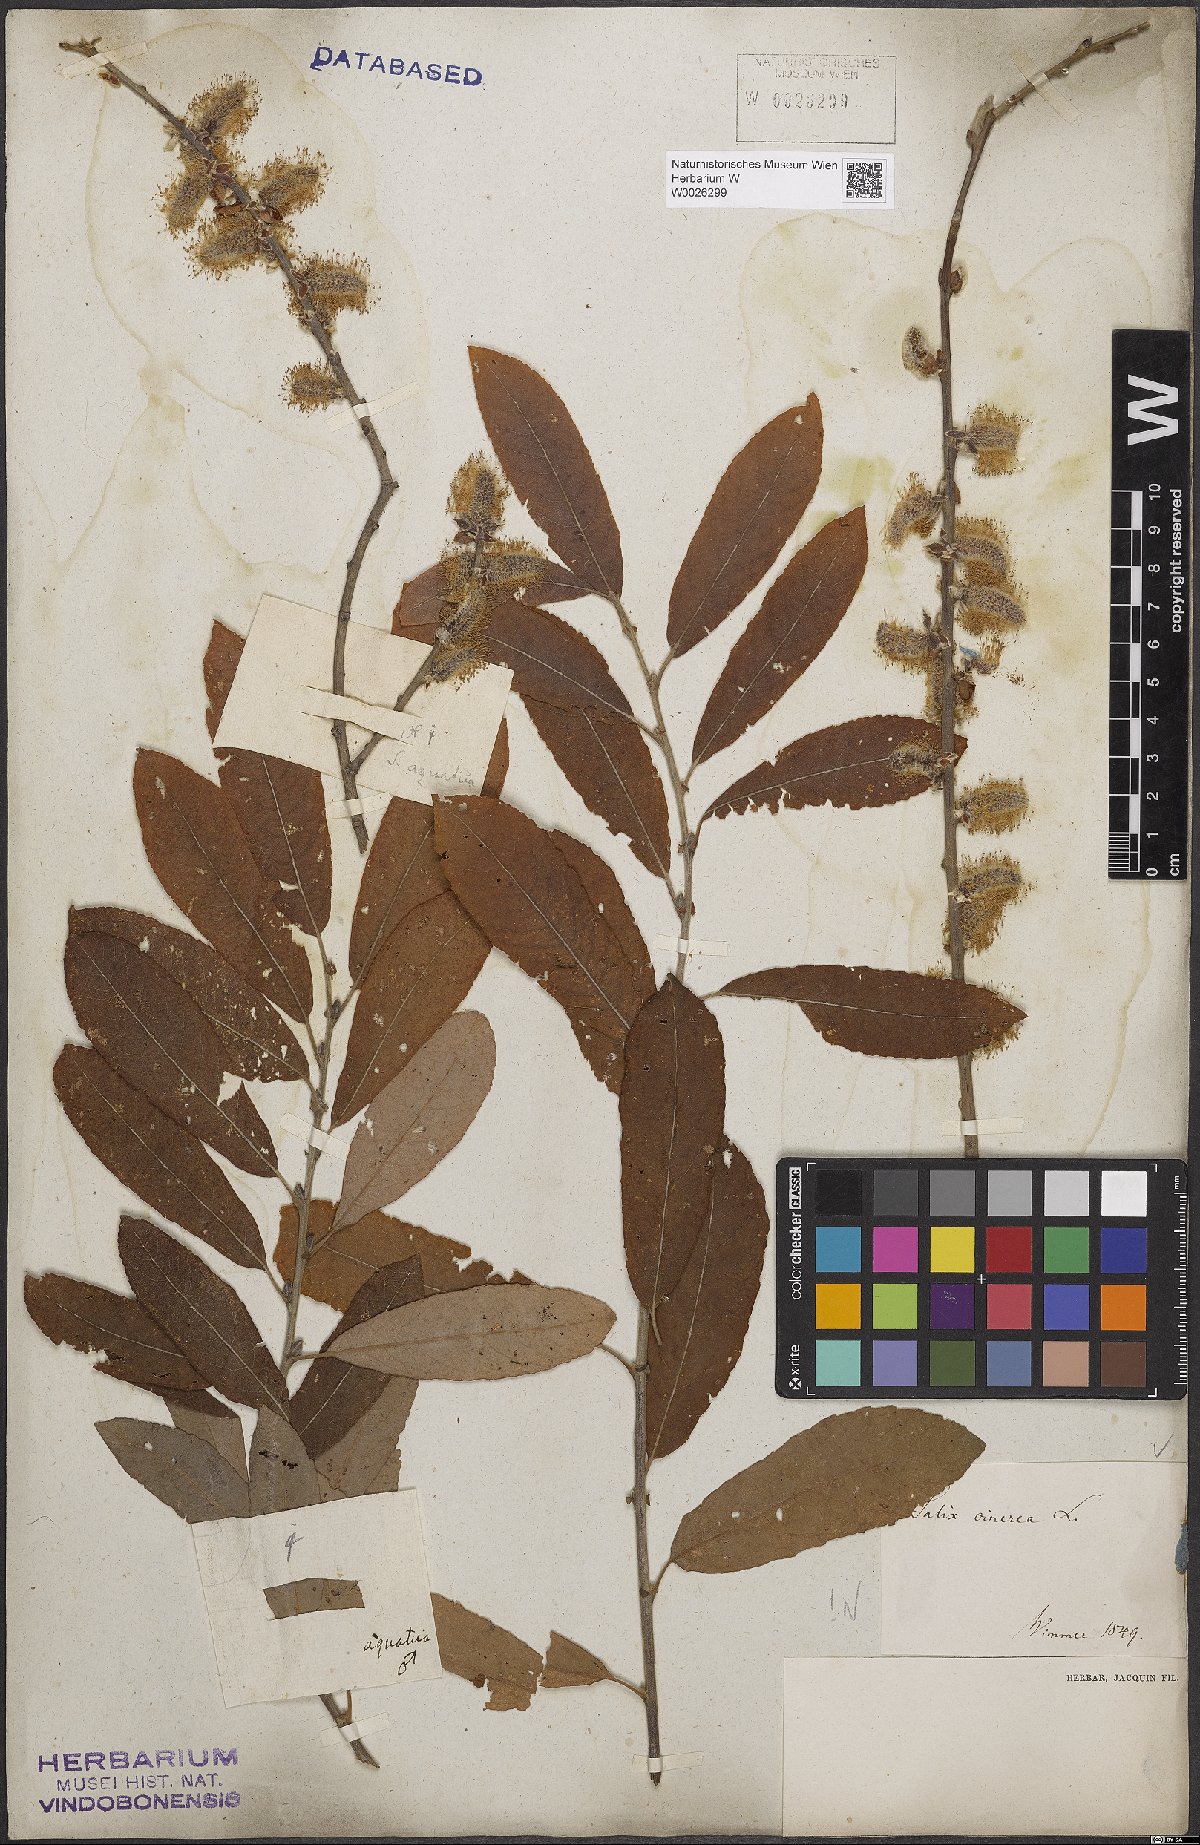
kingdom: Plantae
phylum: Tracheophyta
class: Magnoliopsida
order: Malpighiales
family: Salicaceae
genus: Salix
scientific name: Salix cinerea
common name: Common sallow
